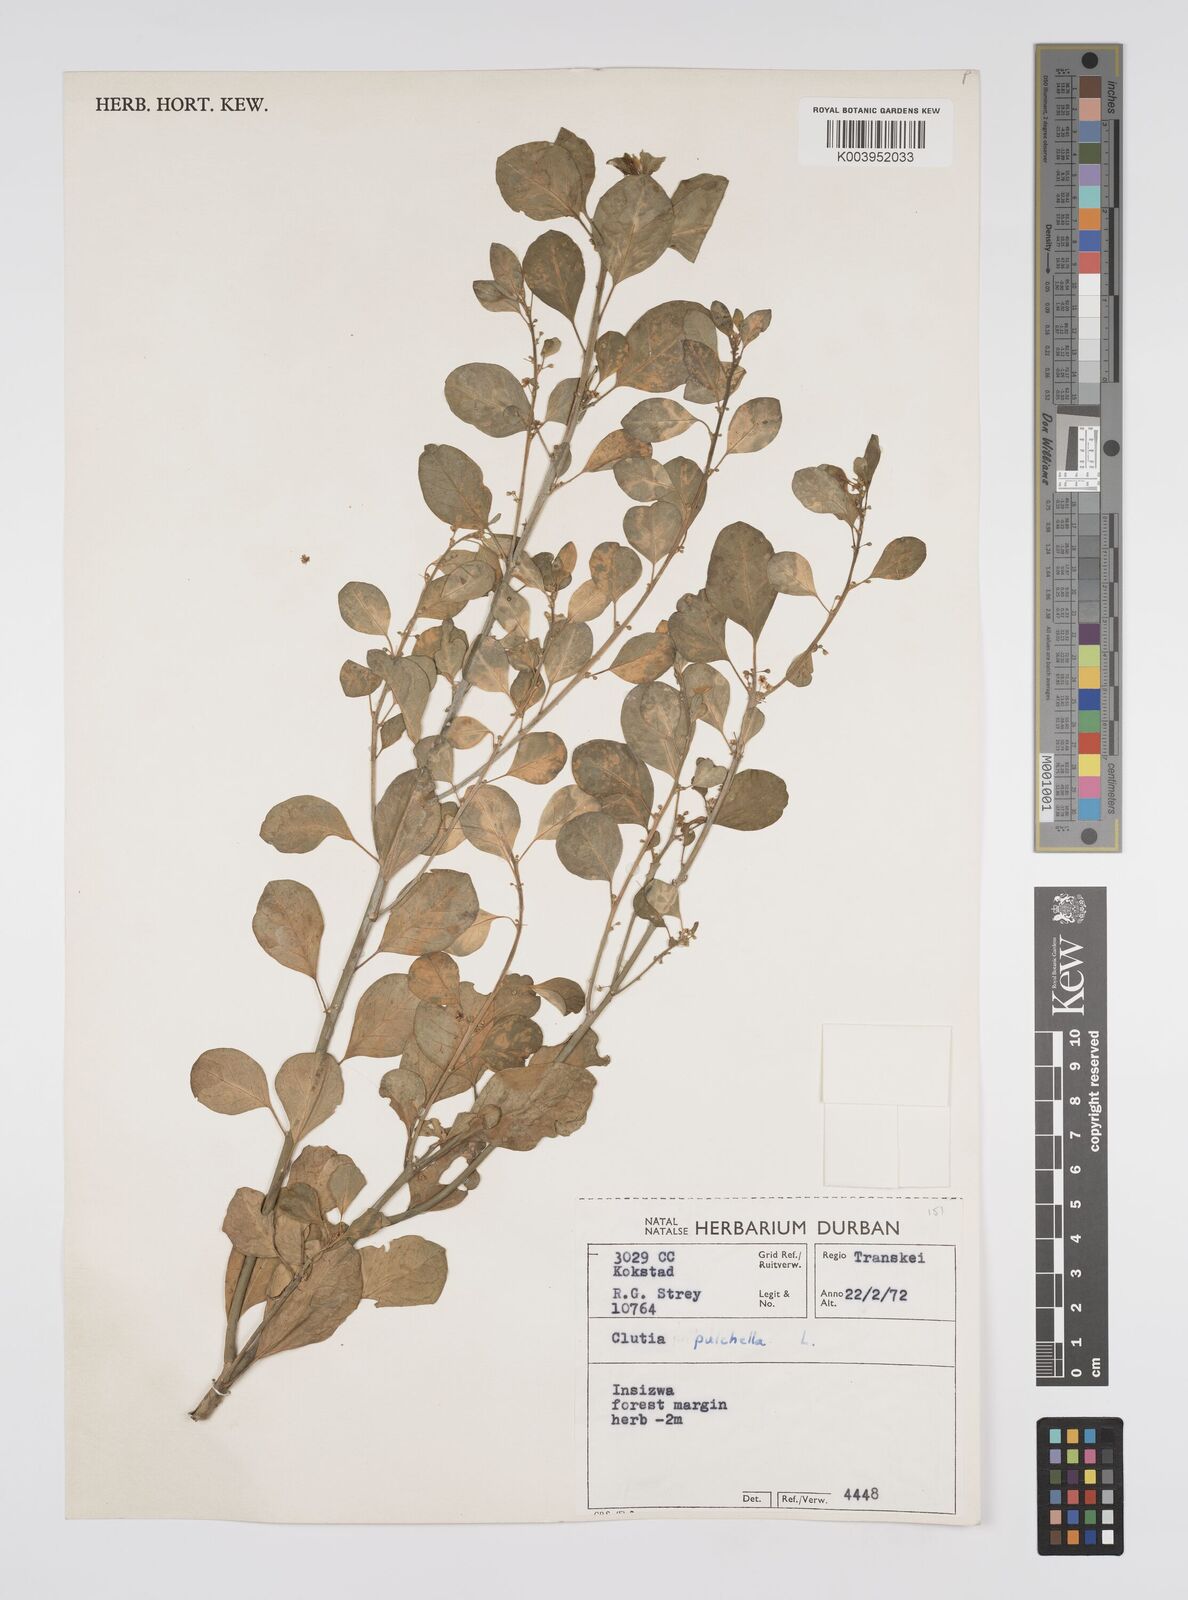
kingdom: Plantae
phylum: Tracheophyta
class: Magnoliopsida
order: Malpighiales
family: Peraceae
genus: Clutia
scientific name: Clutia pulchella
